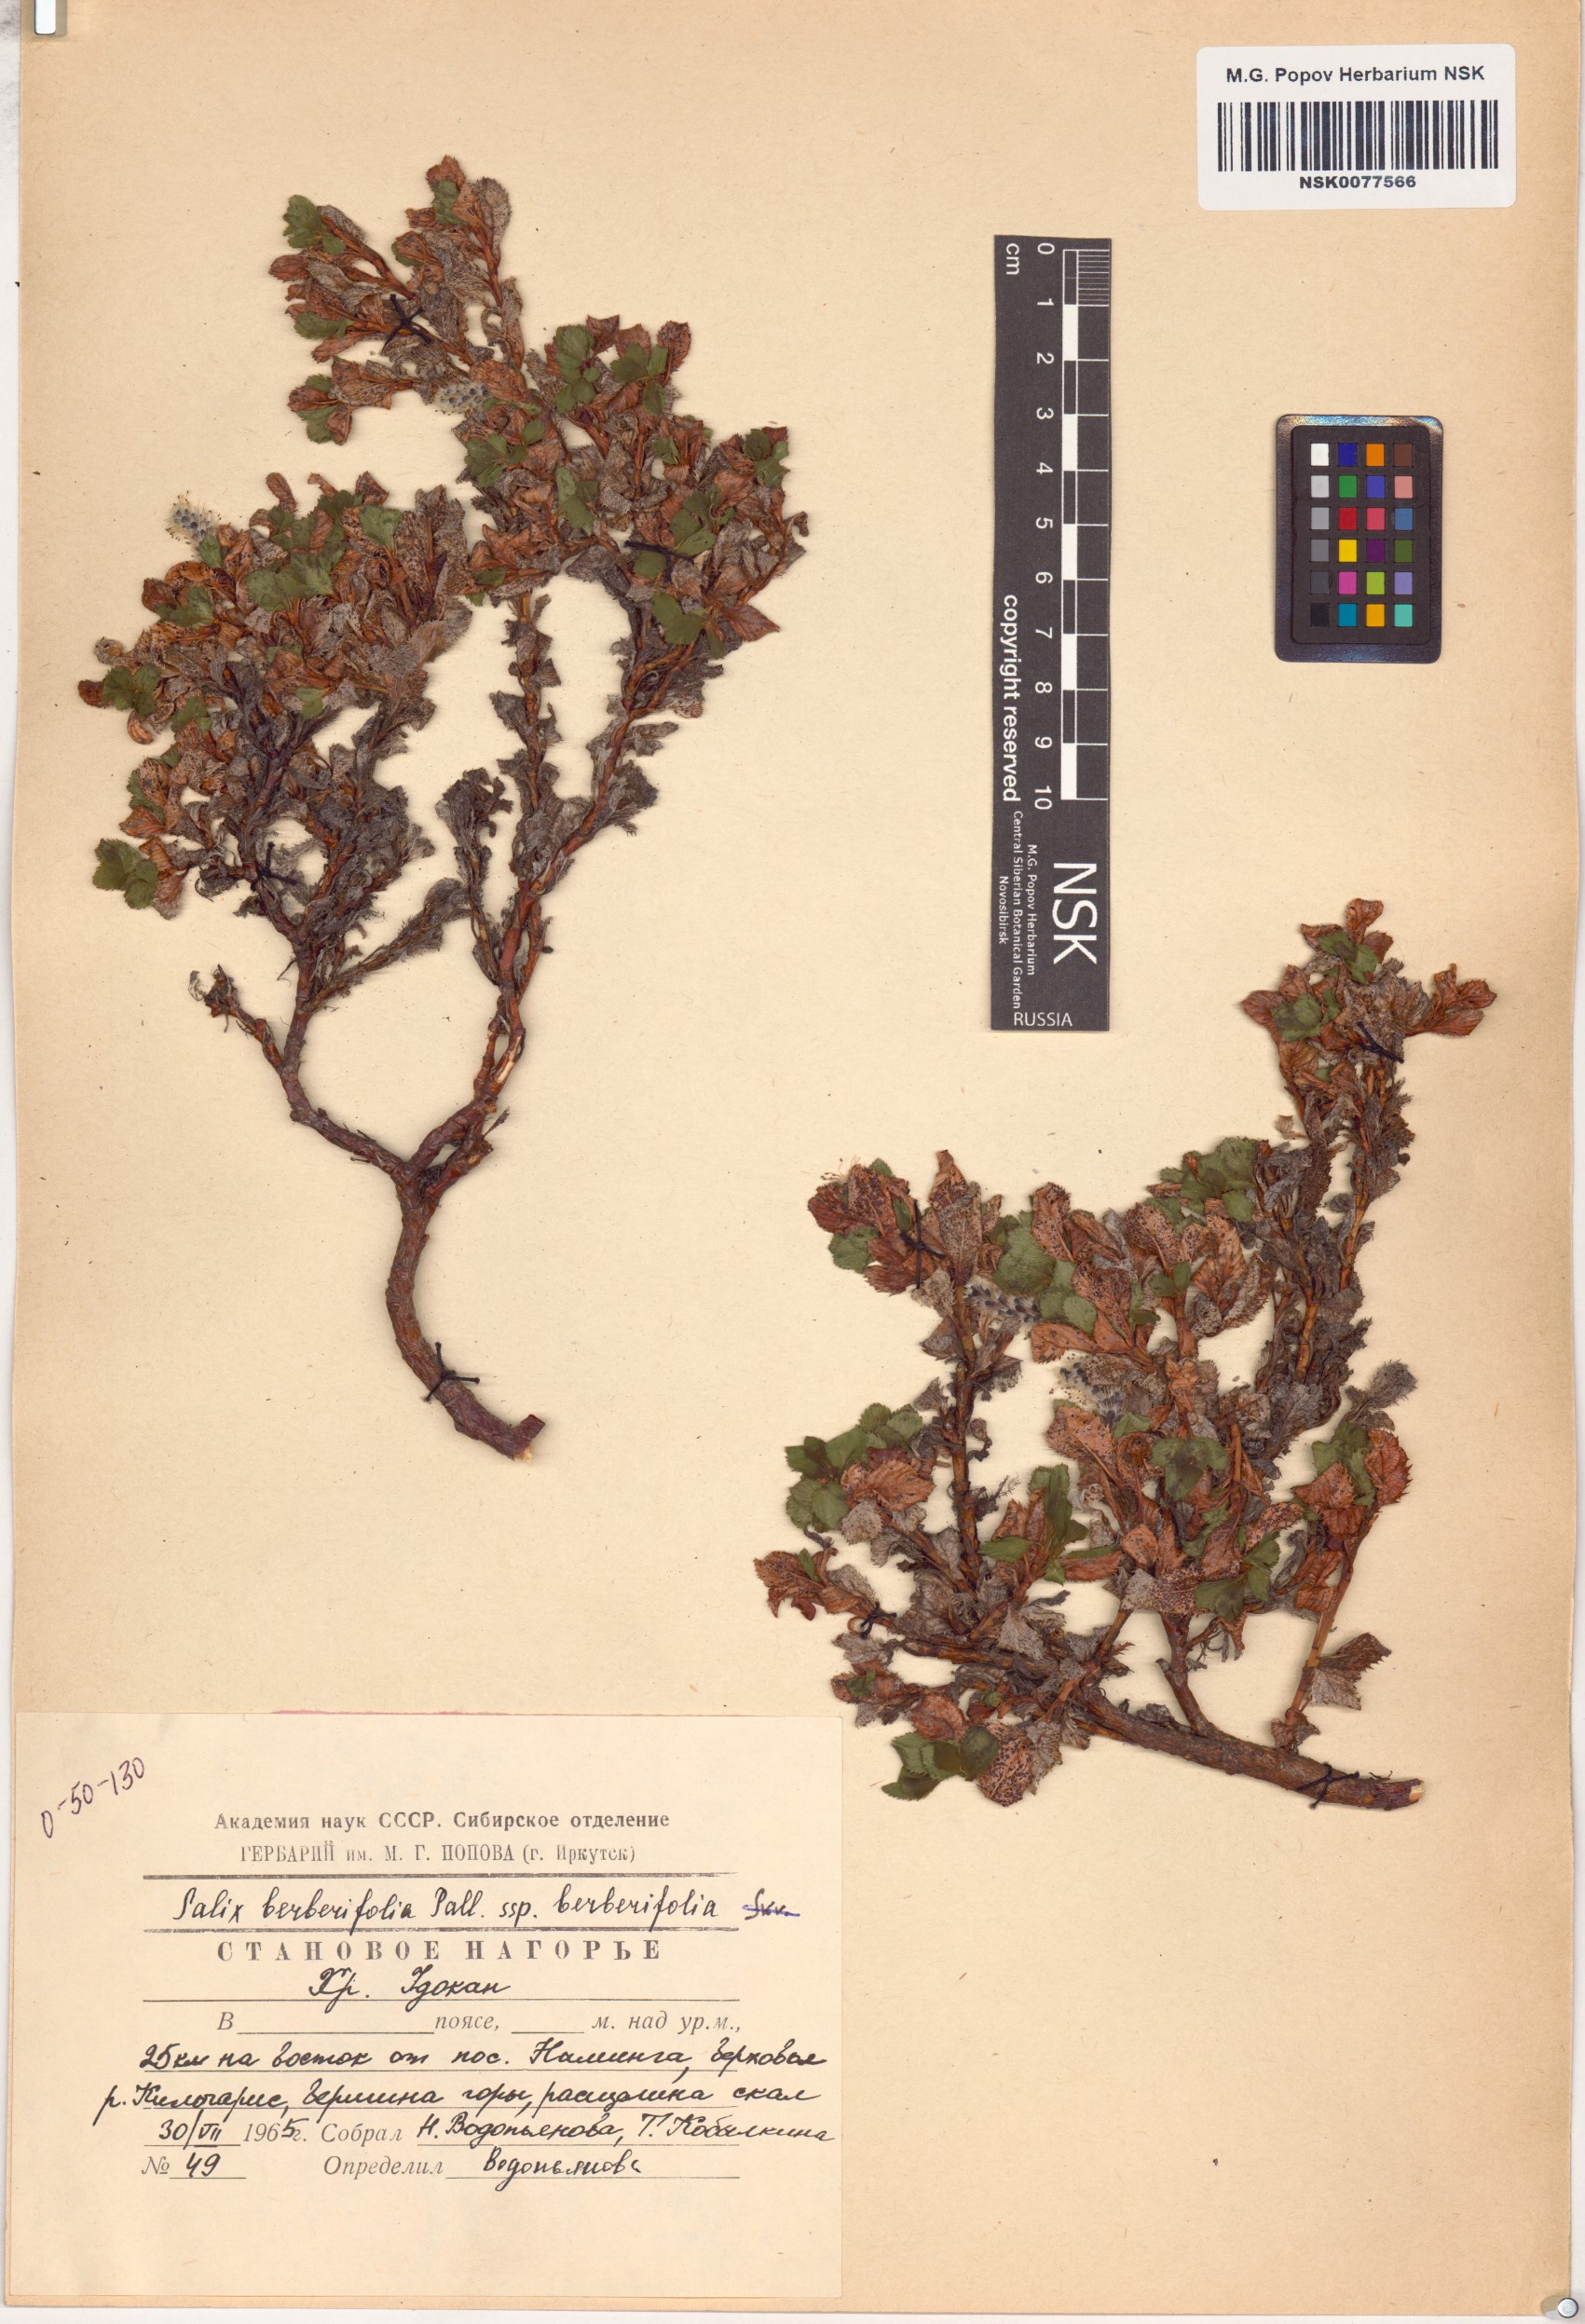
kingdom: Plantae
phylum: Tracheophyta
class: Magnoliopsida
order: Malpighiales
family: Salicaceae
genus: Salix
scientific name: Salix berberifolia
